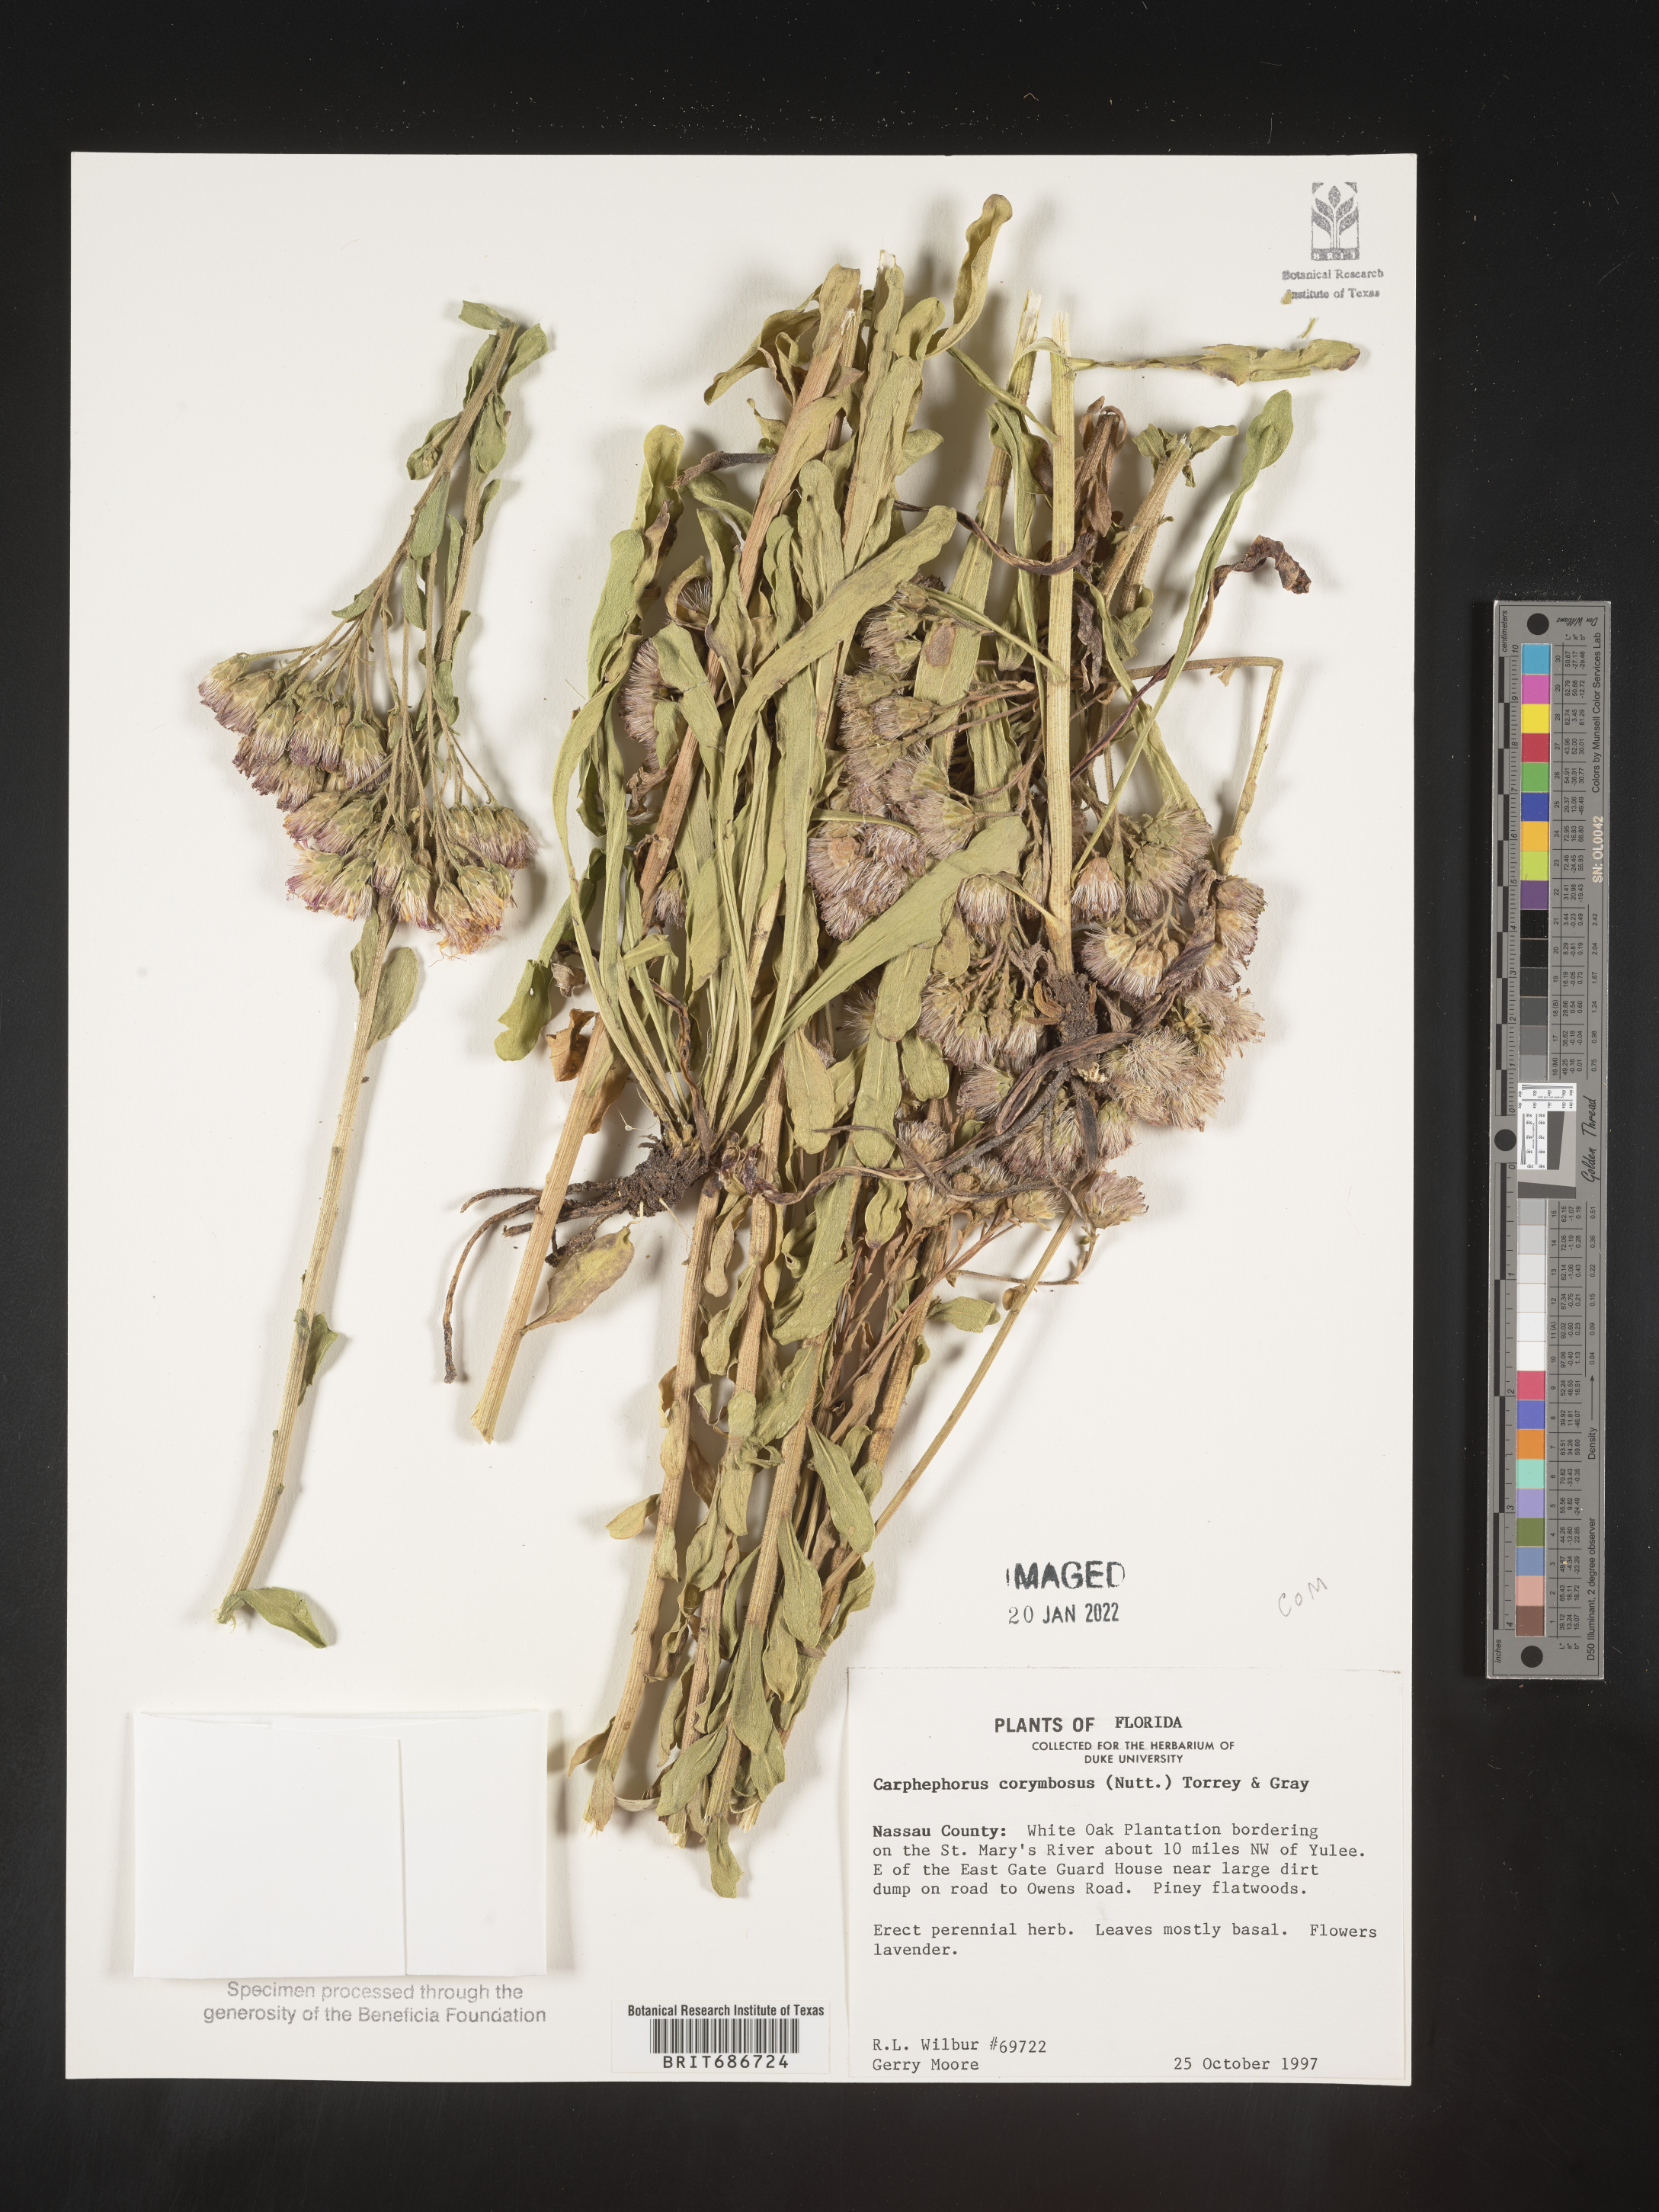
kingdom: Plantae
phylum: Tracheophyta
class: Magnoliopsida
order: Asterales
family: Asteraceae
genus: Carphephorus
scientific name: Carphephorus corymbosus
